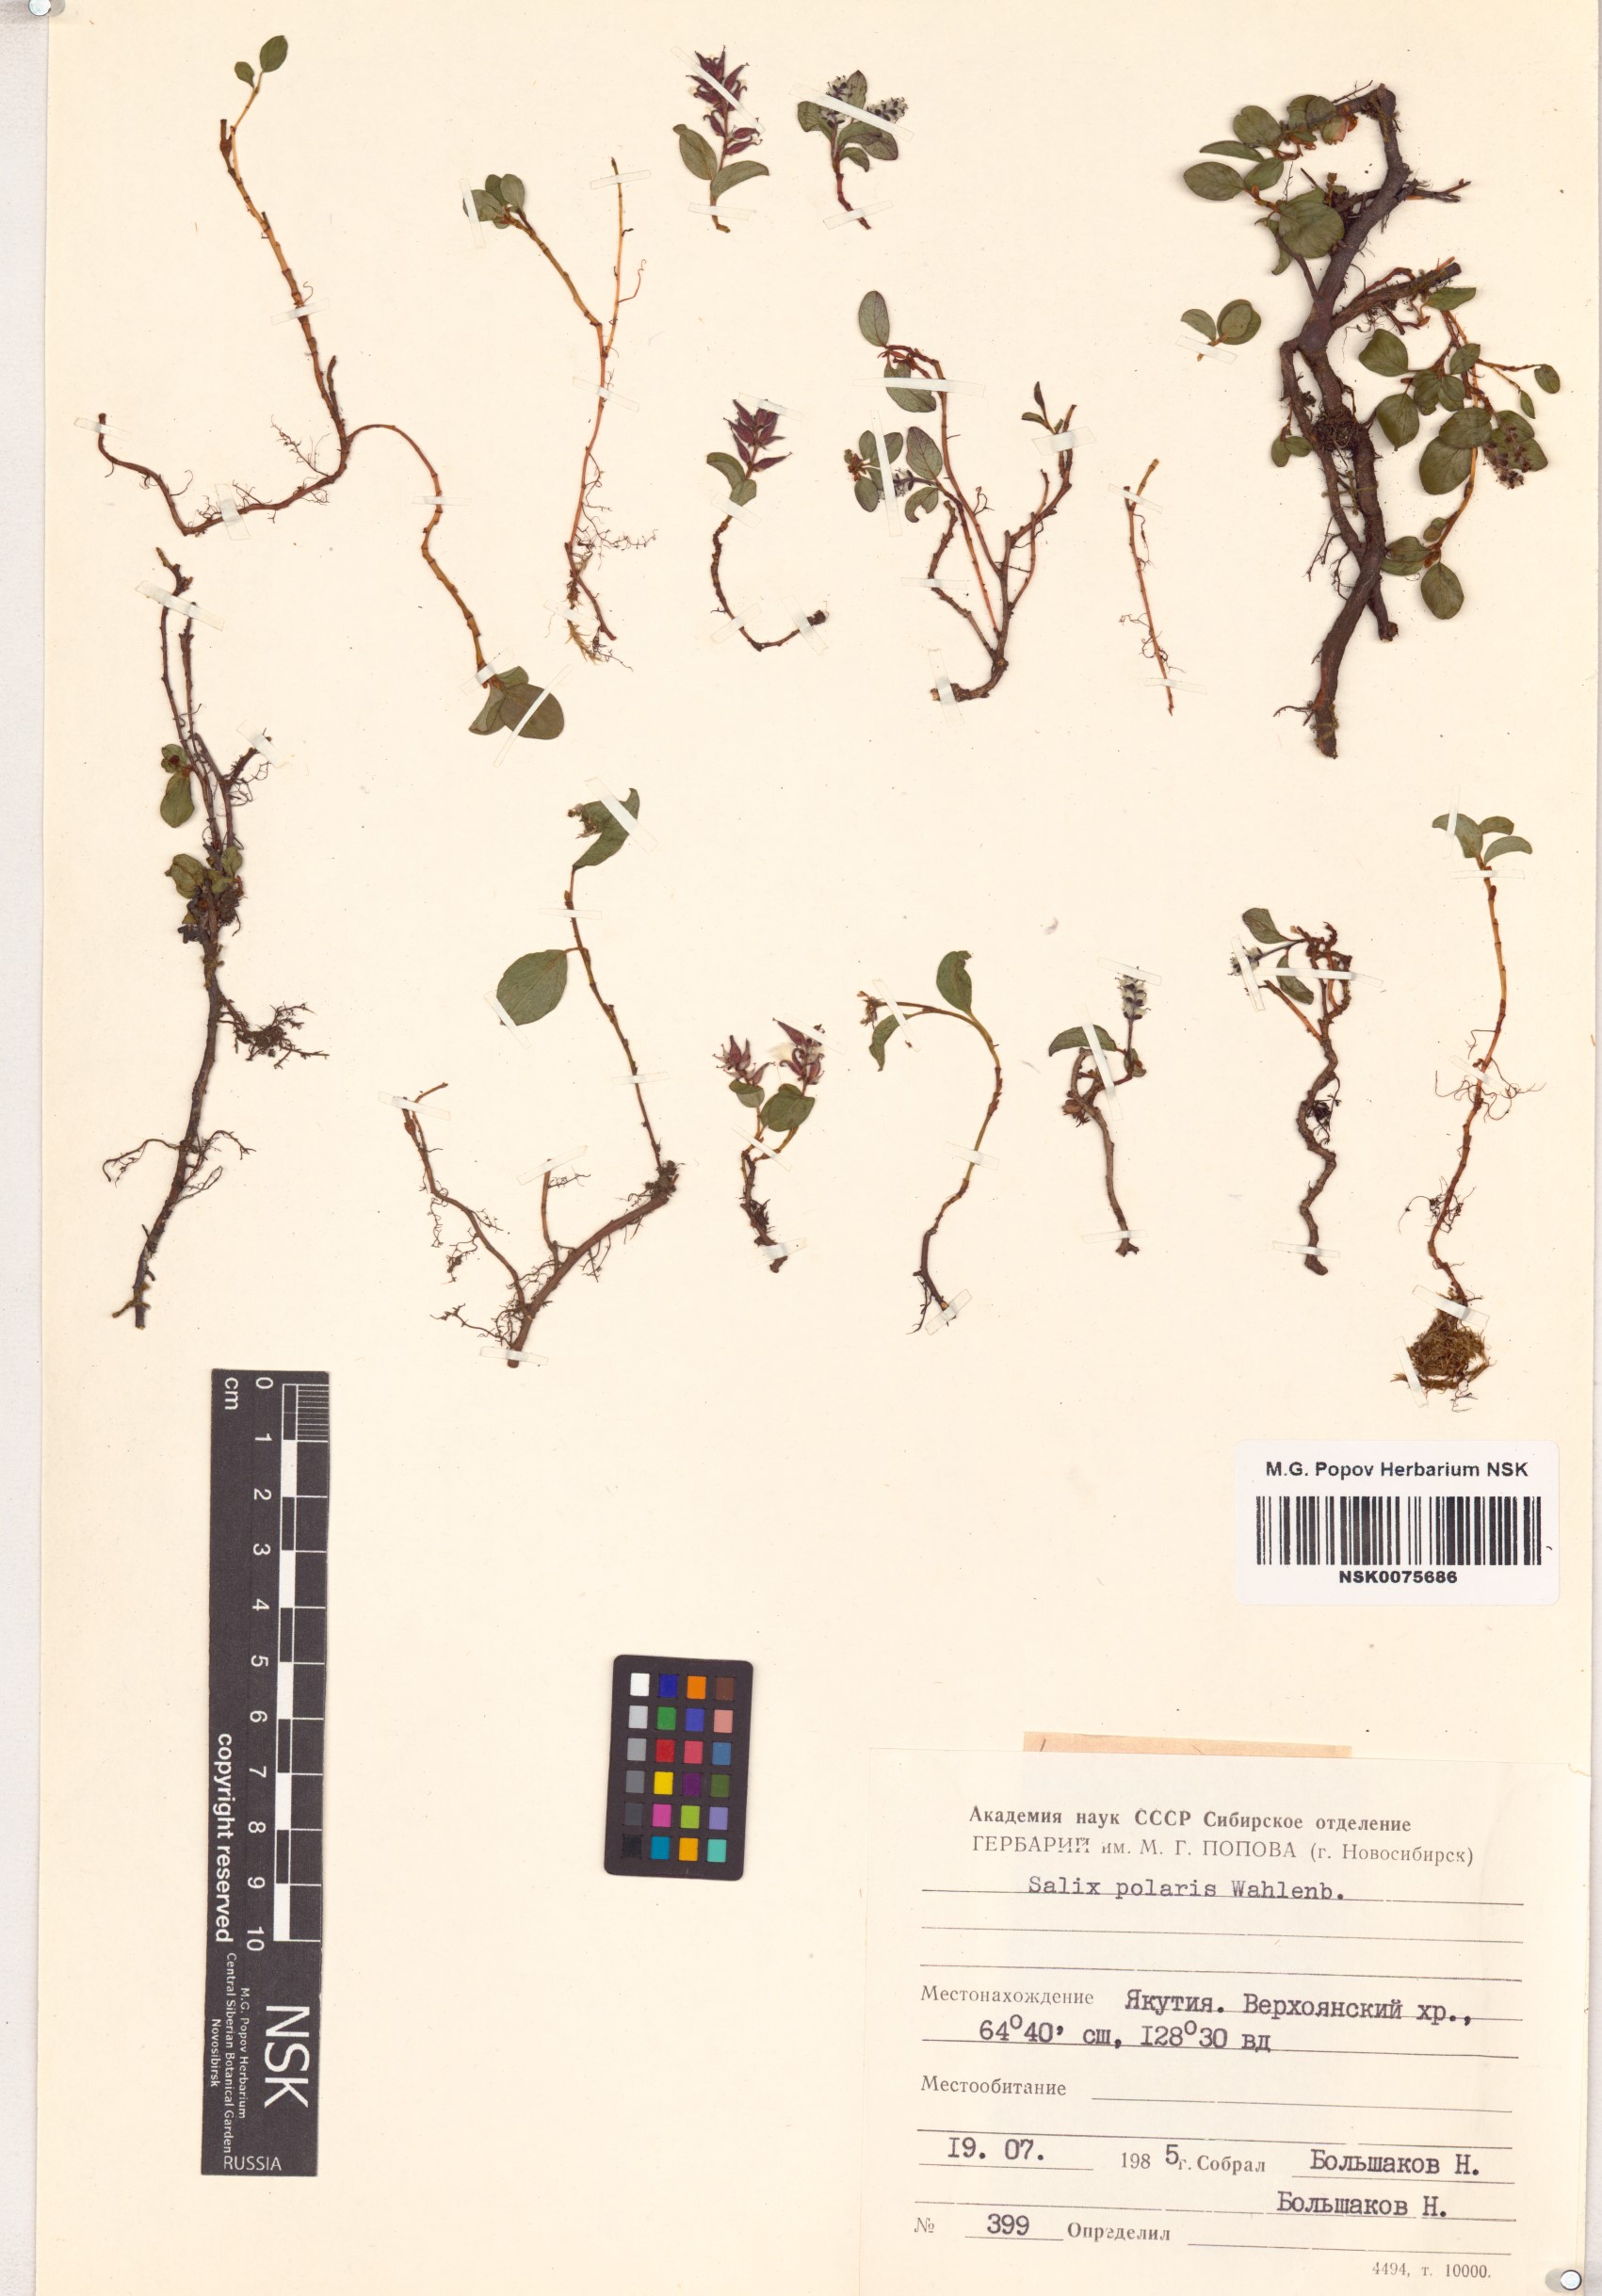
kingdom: Plantae
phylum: Tracheophyta
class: Magnoliopsida
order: Malpighiales
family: Salicaceae
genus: Salix
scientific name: Salix polaris
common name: Polar willow
